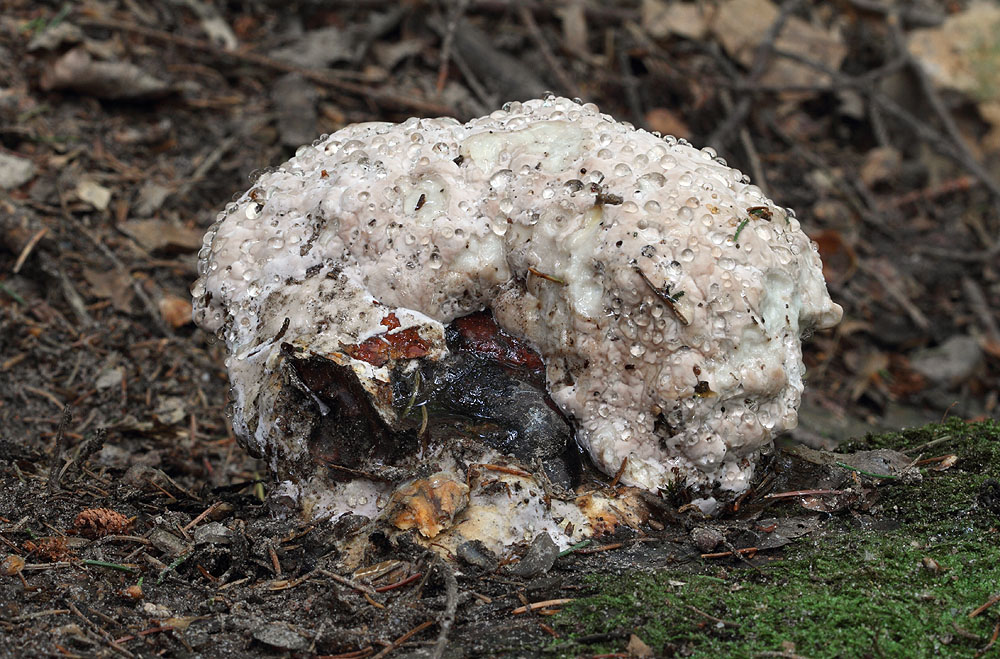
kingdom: Fungi
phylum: Basidiomycota
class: Agaricomycetes
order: Polyporales
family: Fomitopsidaceae
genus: Fomitopsis
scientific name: Fomitopsis pinicola
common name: randbæltet hovporesvamp
